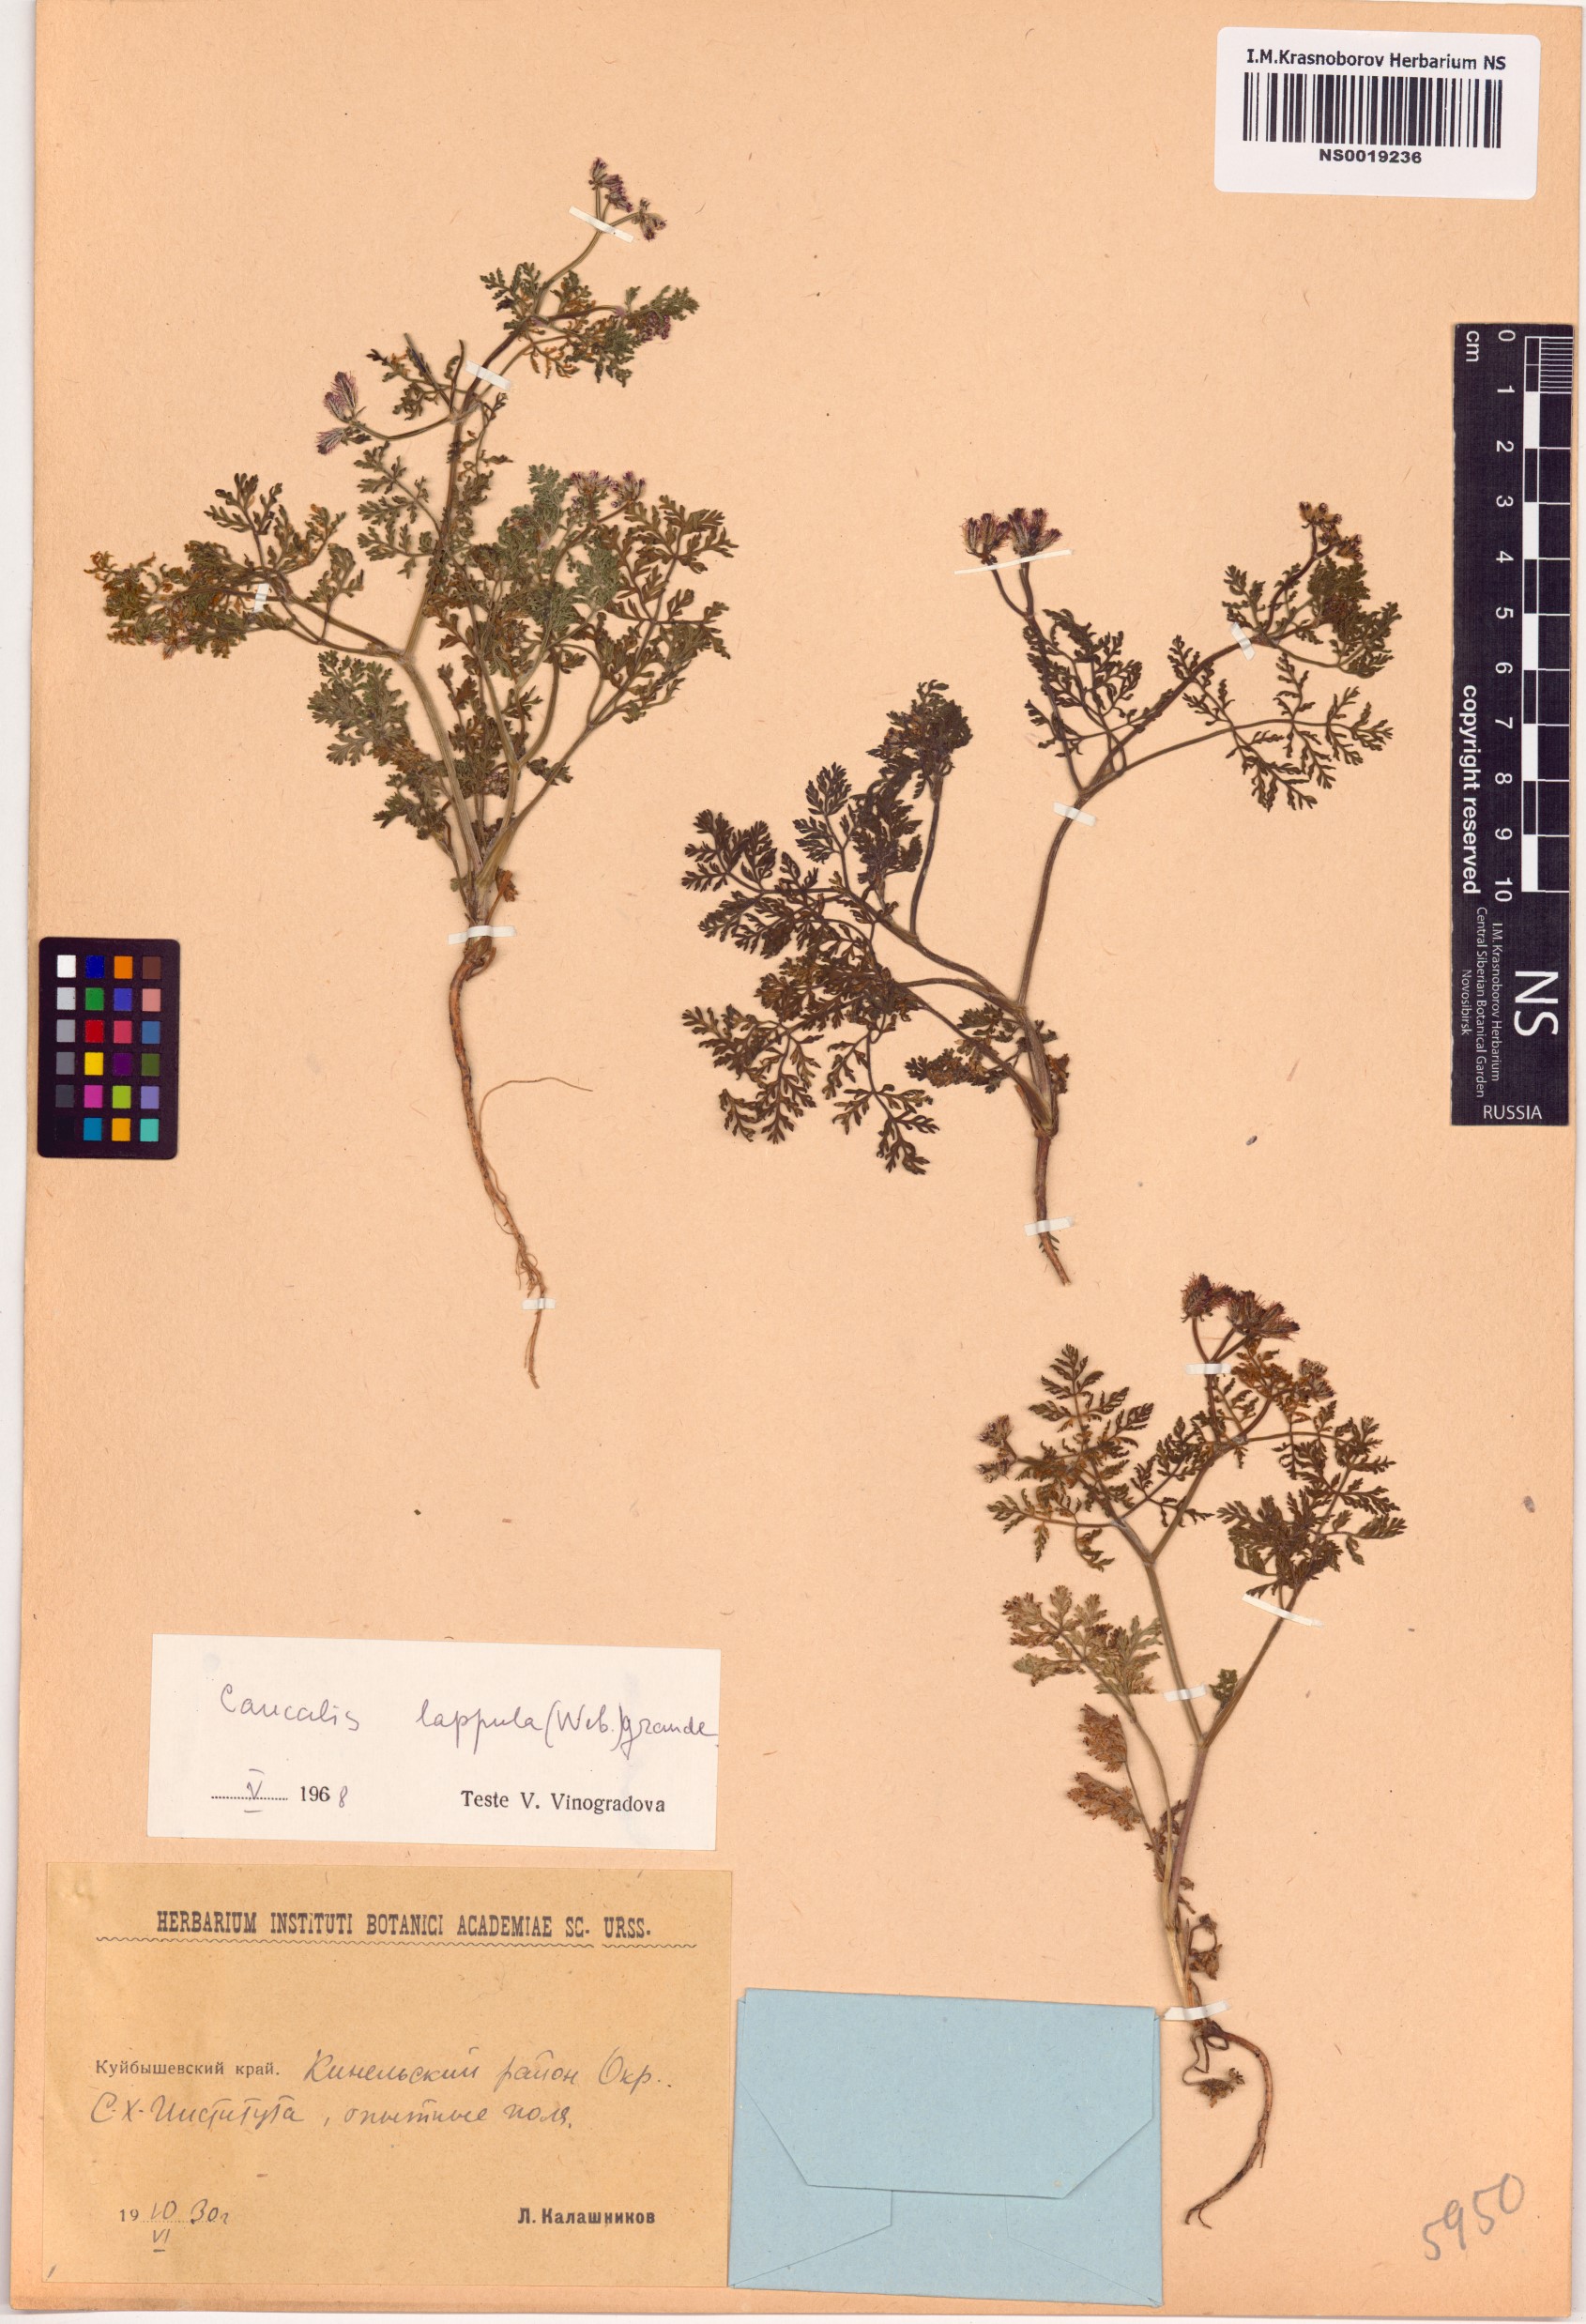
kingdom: Plantae
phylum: Tracheophyta
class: Magnoliopsida
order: Apiales
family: Apiaceae
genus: Caucalis
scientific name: Caucalis platycarpos
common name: Small bur-parsley
